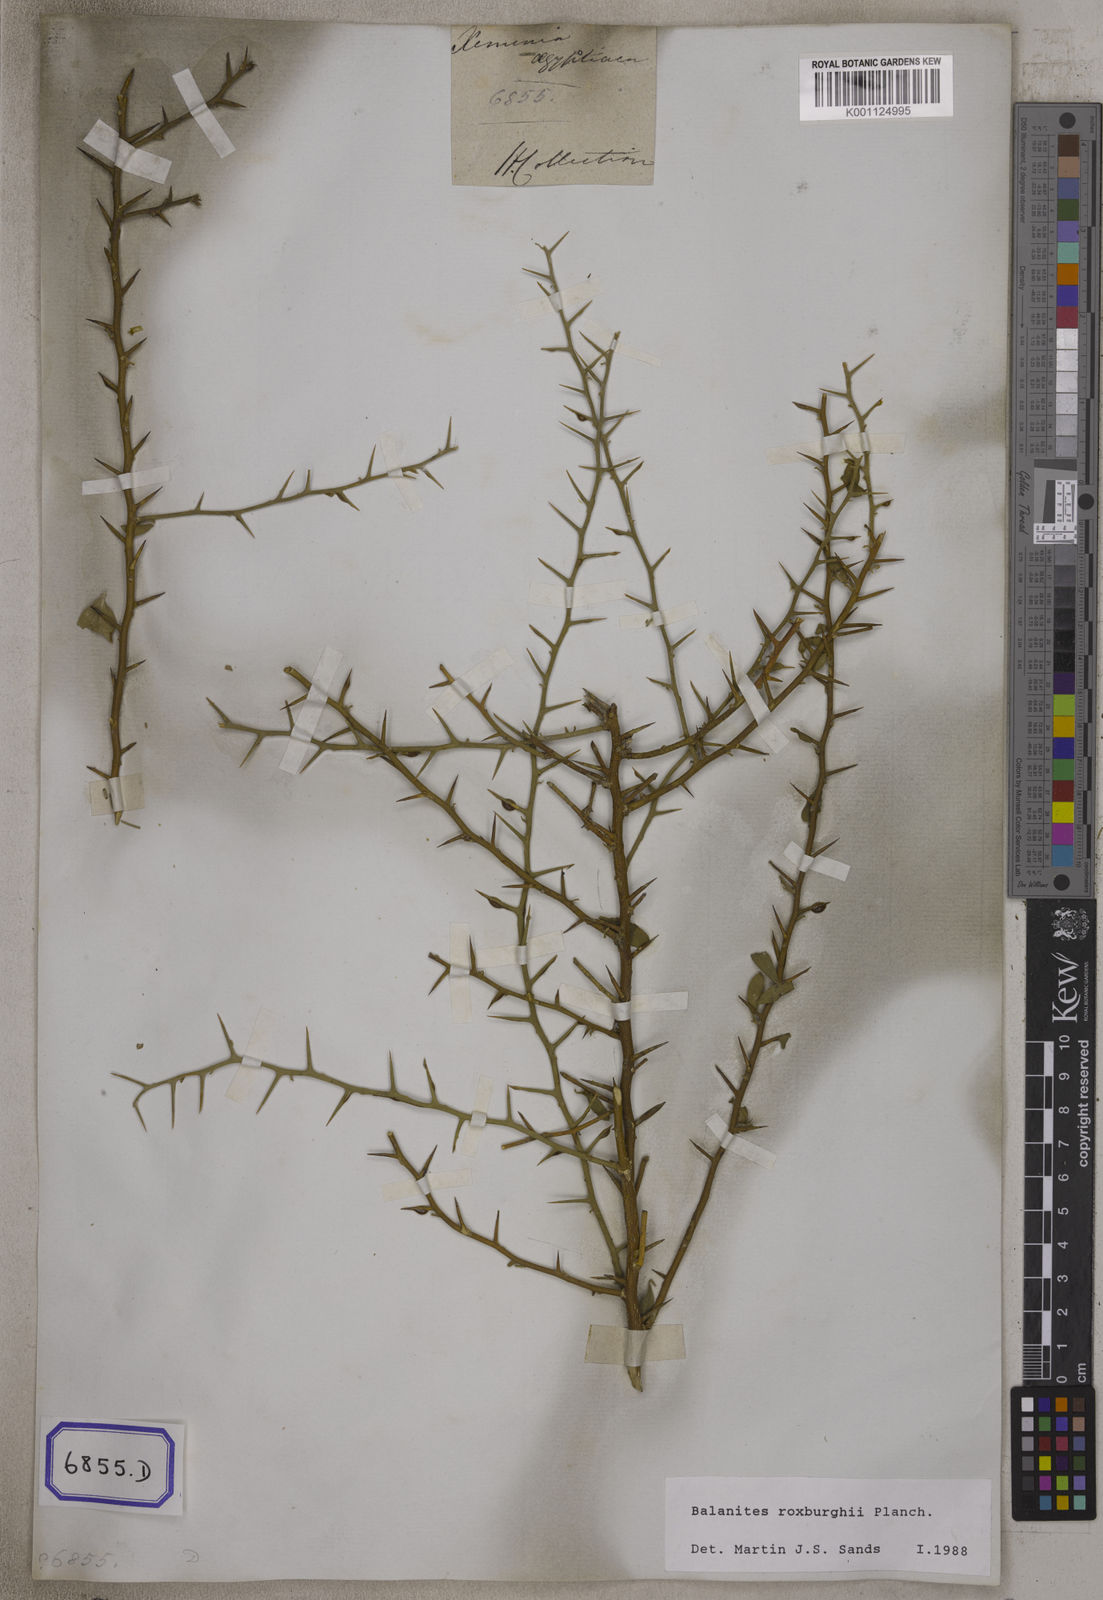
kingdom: Plantae
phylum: Tracheophyta
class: Magnoliopsida
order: Zygophyllales
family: Zygophyllaceae
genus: Balanites
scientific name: Balanites aegyptiaca
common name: Balanites
